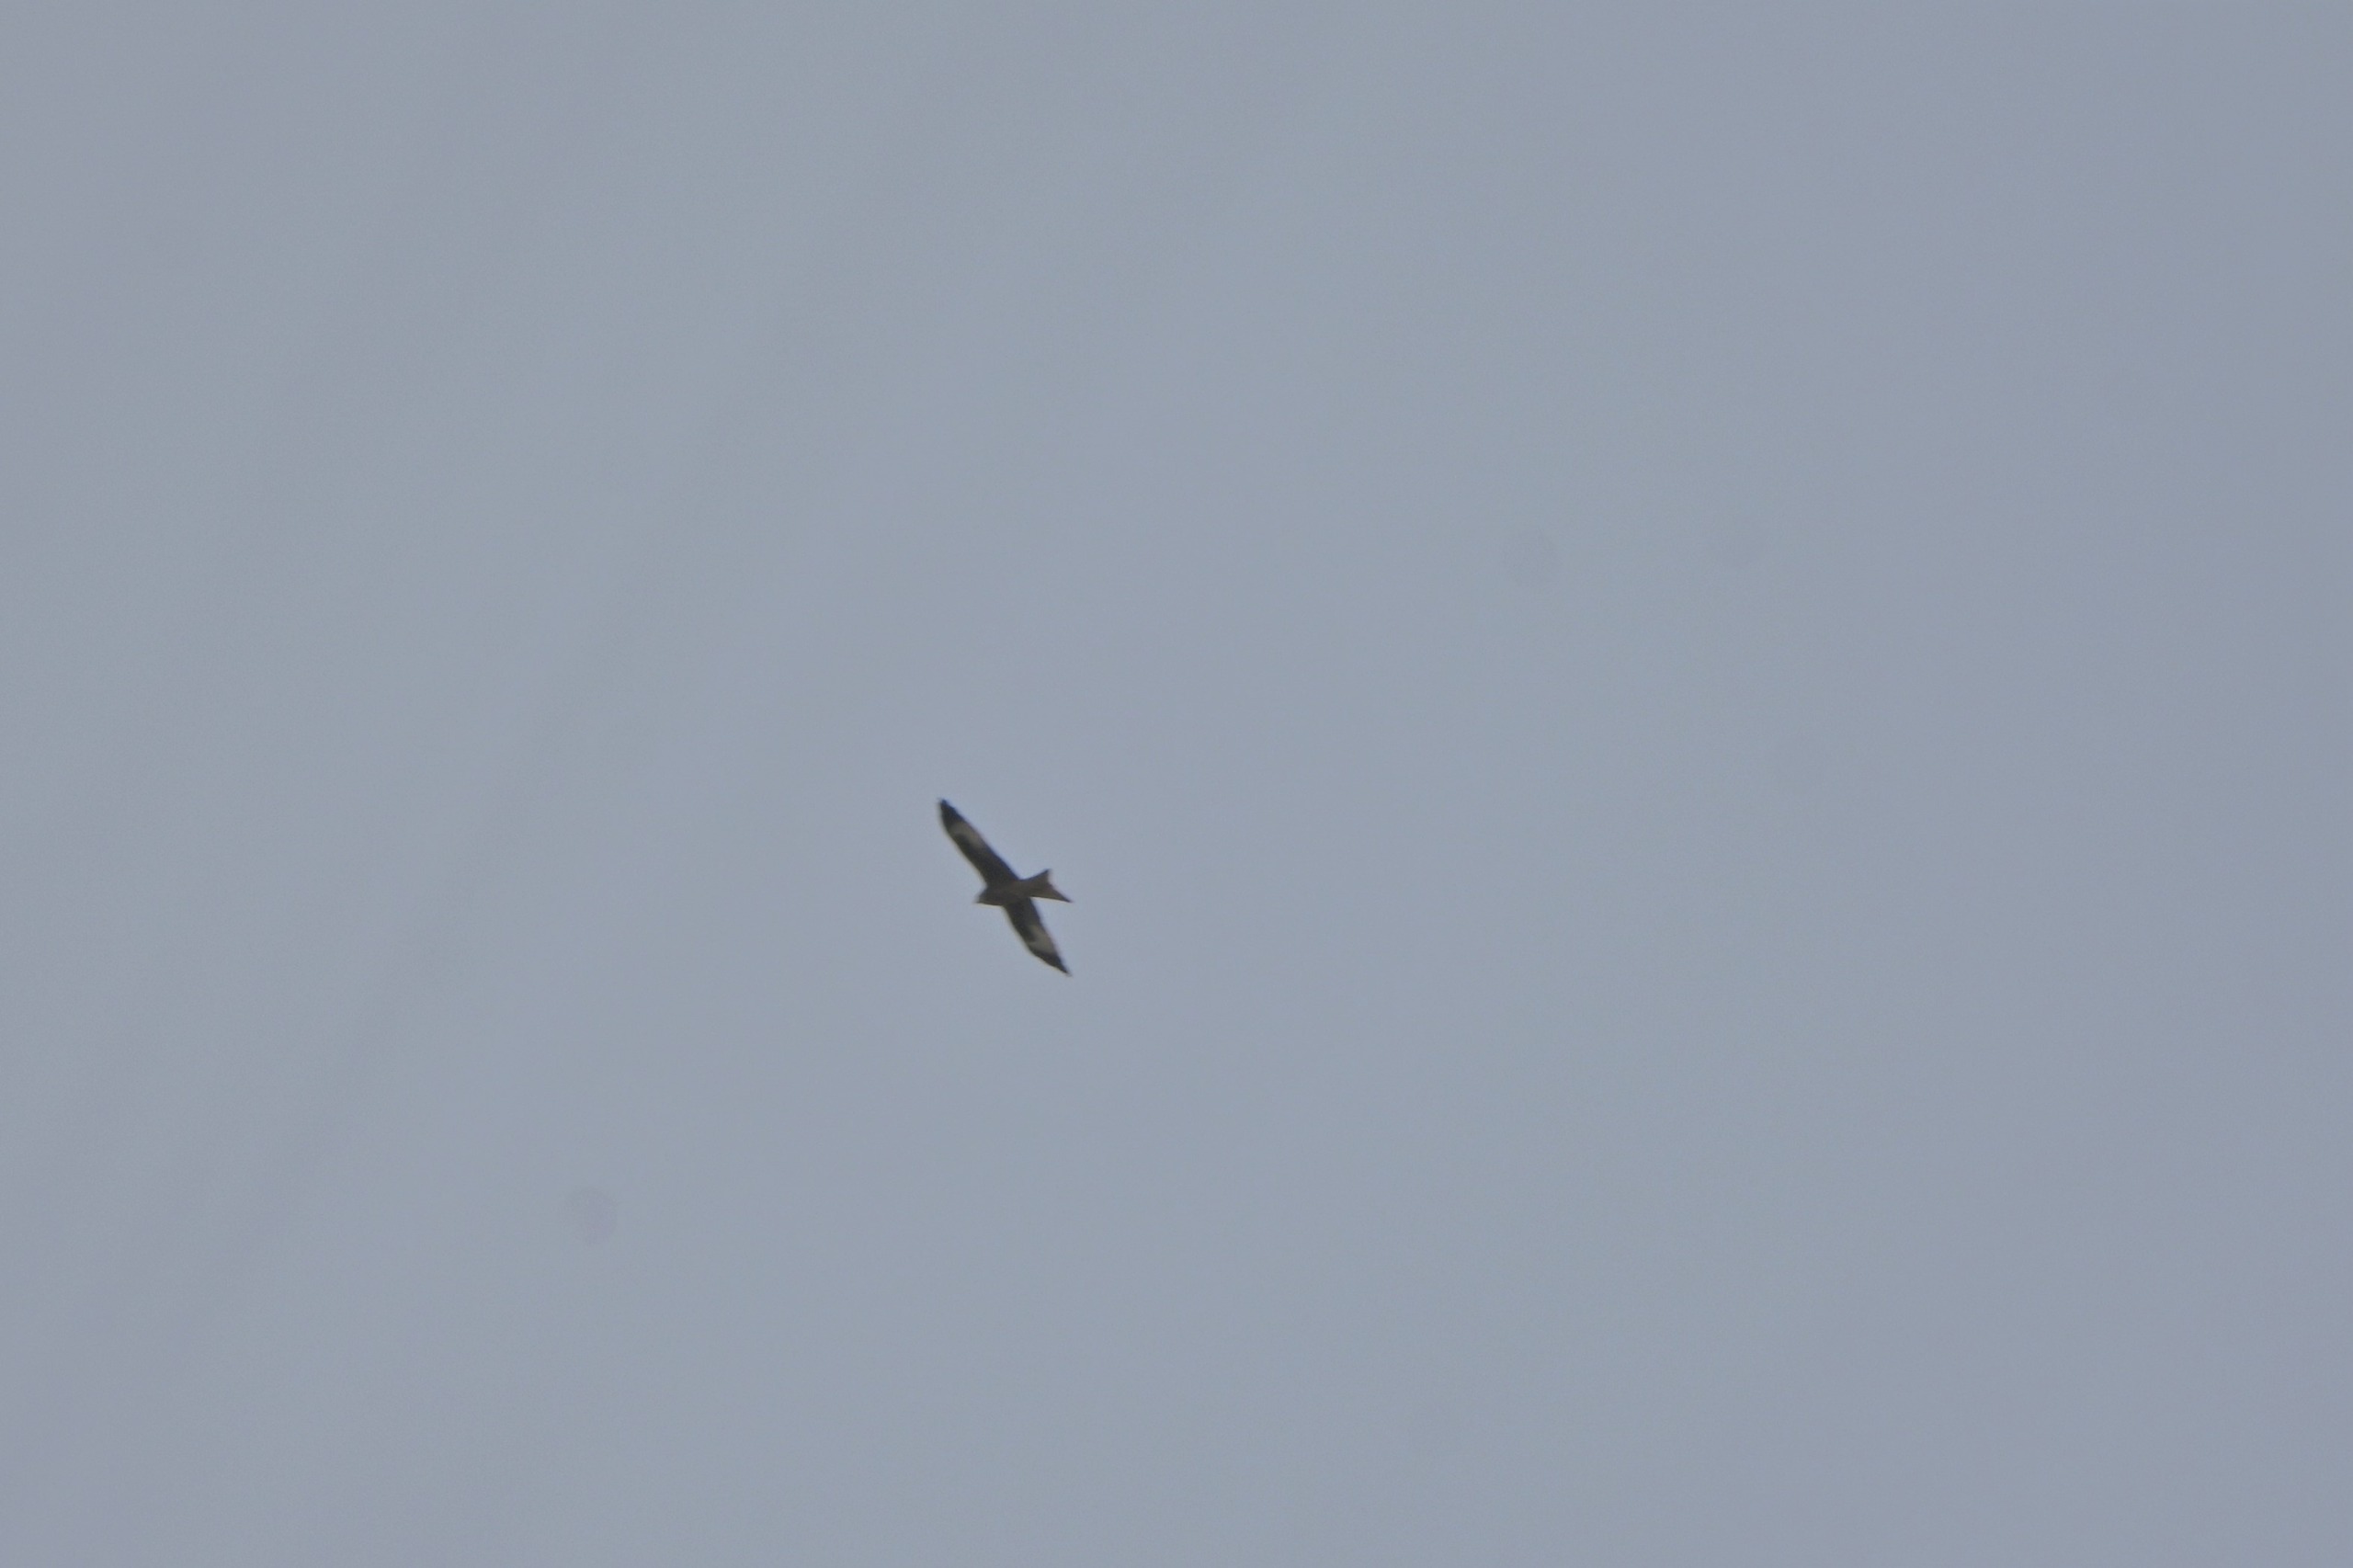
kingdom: Animalia
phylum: Chordata
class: Aves
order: Accipitriformes
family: Accipitridae
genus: Milvus
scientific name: Milvus milvus
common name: Rød glente
